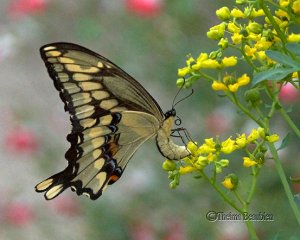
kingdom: Animalia
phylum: Arthropoda
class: Insecta
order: Lepidoptera
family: Papilionidae
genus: Papilio
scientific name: Papilio cresphontes
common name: Eastern Giant Swallowtail
